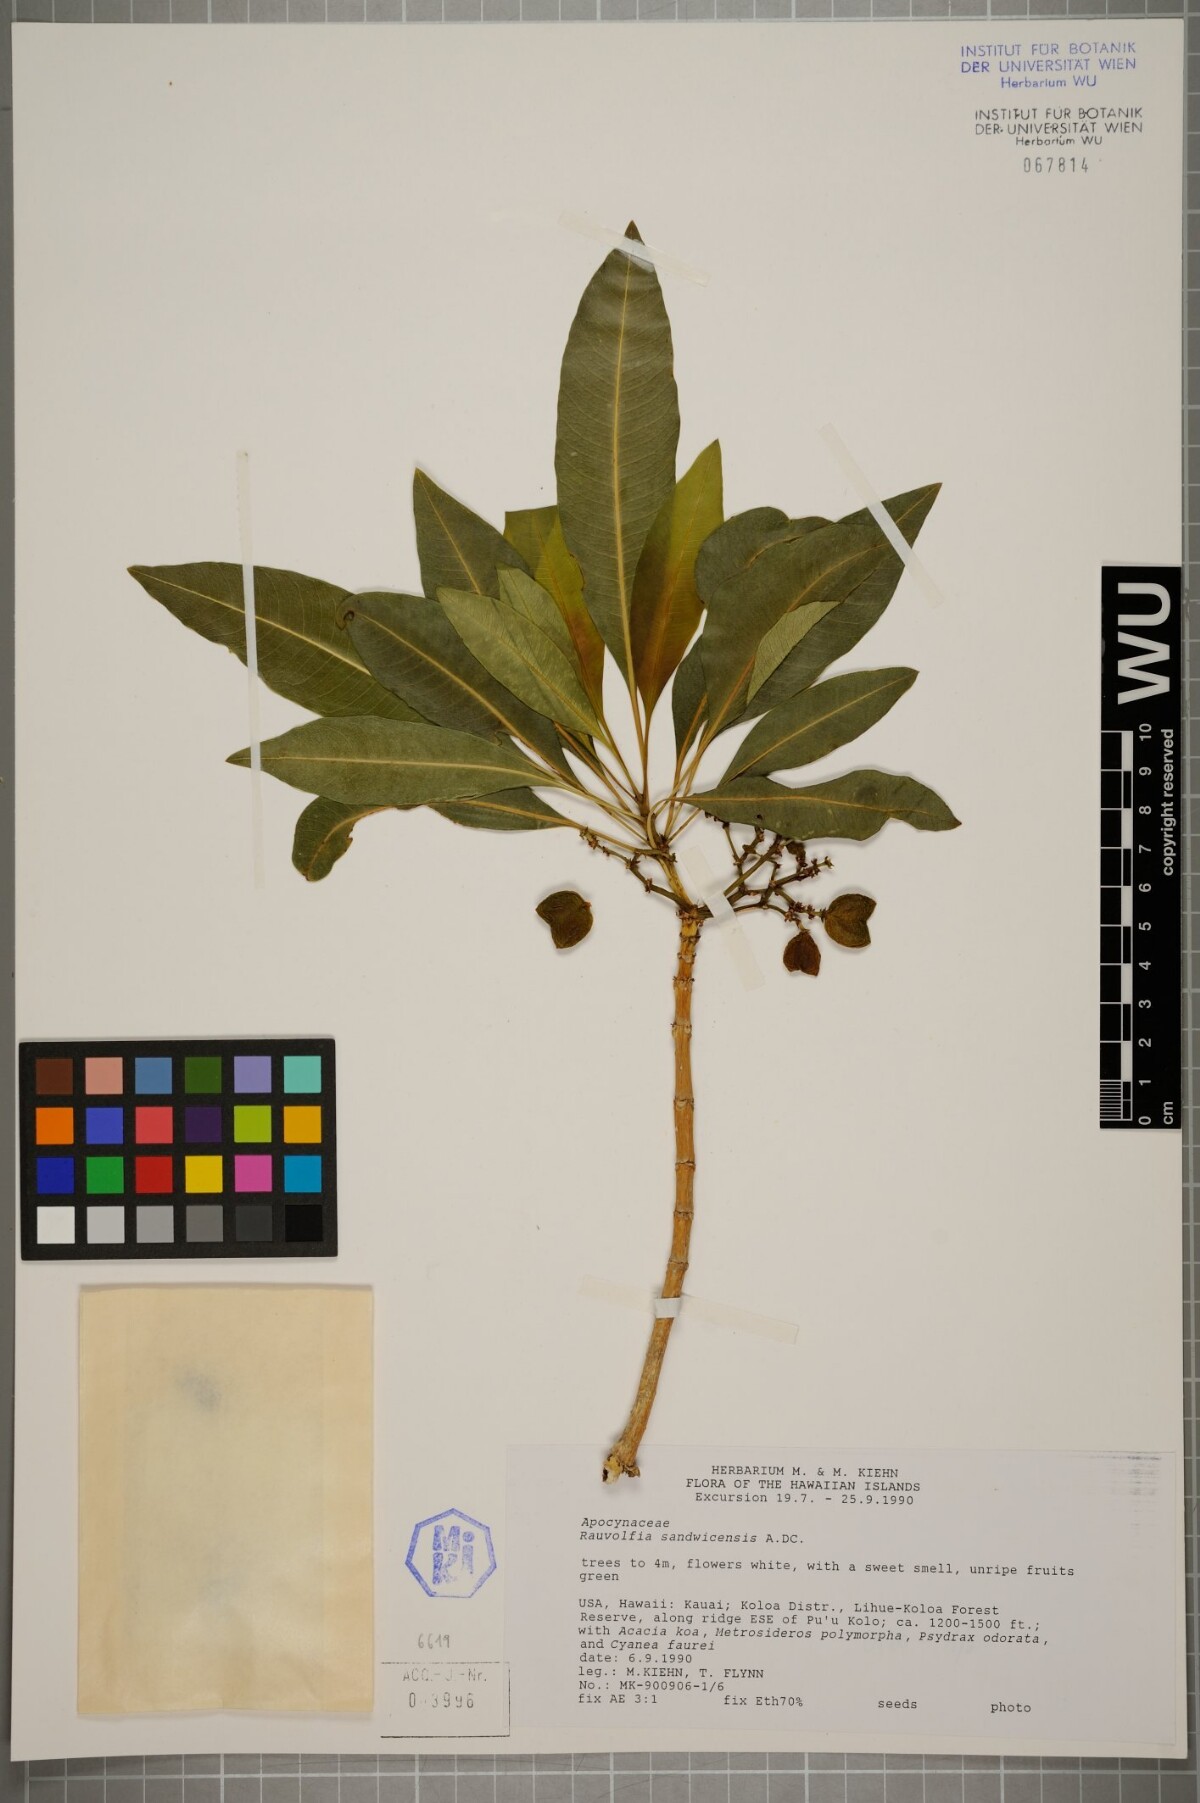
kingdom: Plantae
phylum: Tracheophyta
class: Magnoliopsida
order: Gentianales
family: Apocynaceae
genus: Rauvolfia
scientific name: Rauvolfia sandwicensis
